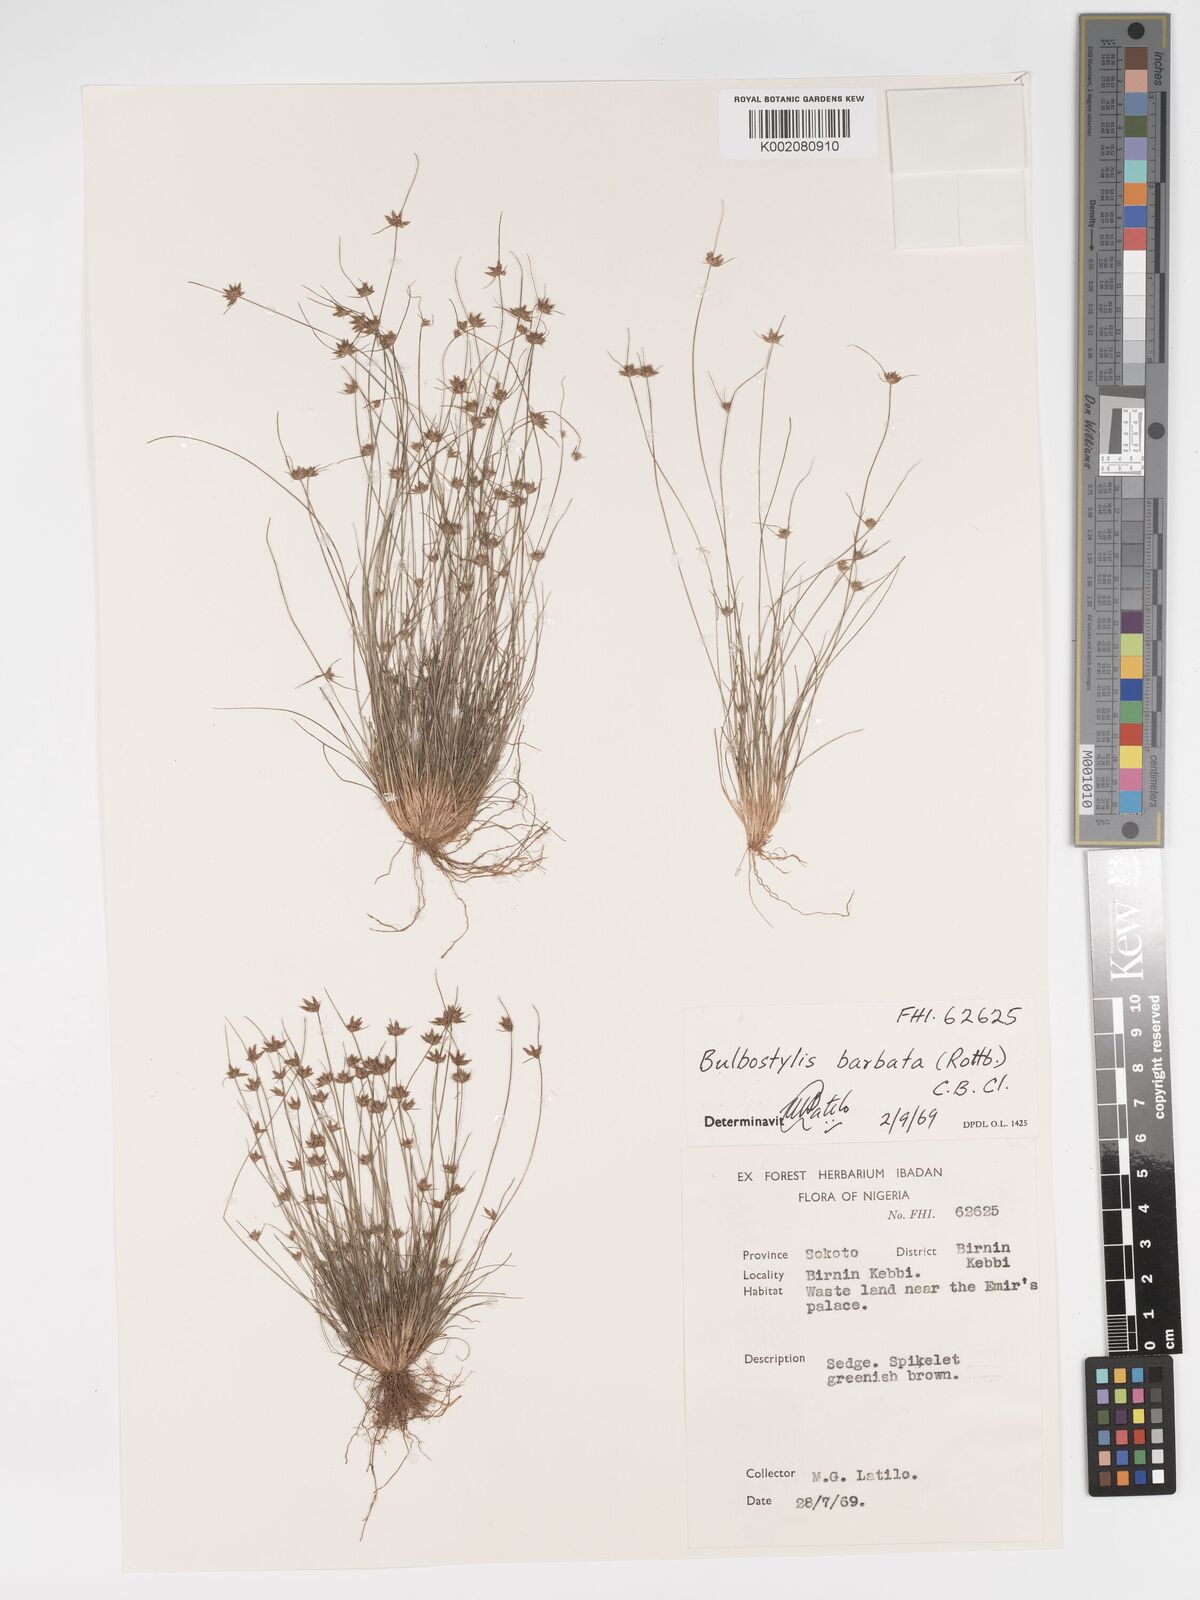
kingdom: Plantae
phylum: Tracheophyta
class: Liliopsida
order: Poales
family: Cyperaceae
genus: Bulbostylis
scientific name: Bulbostylis barbata
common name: Watergrass
